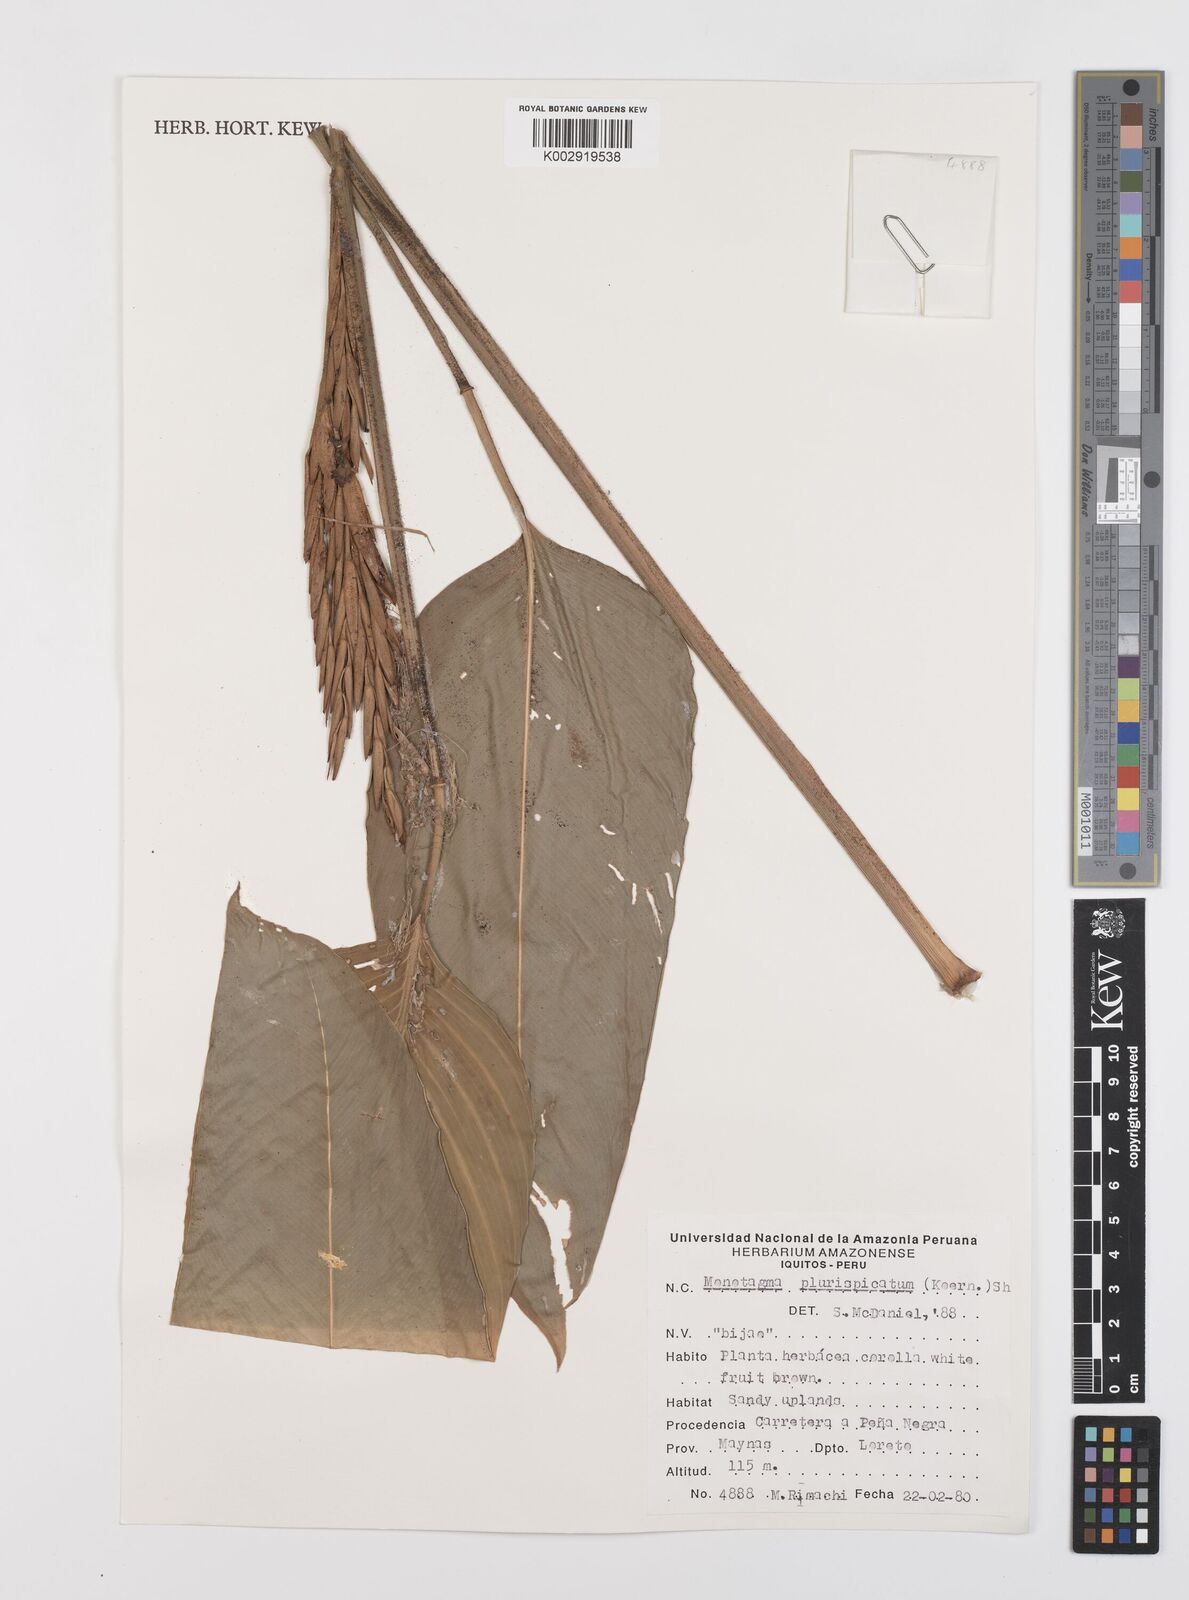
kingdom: Plantae
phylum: Tracheophyta
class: Liliopsida
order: Zingiberales
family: Marantaceae
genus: Monotagma
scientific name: Monotagma plurispicatum
